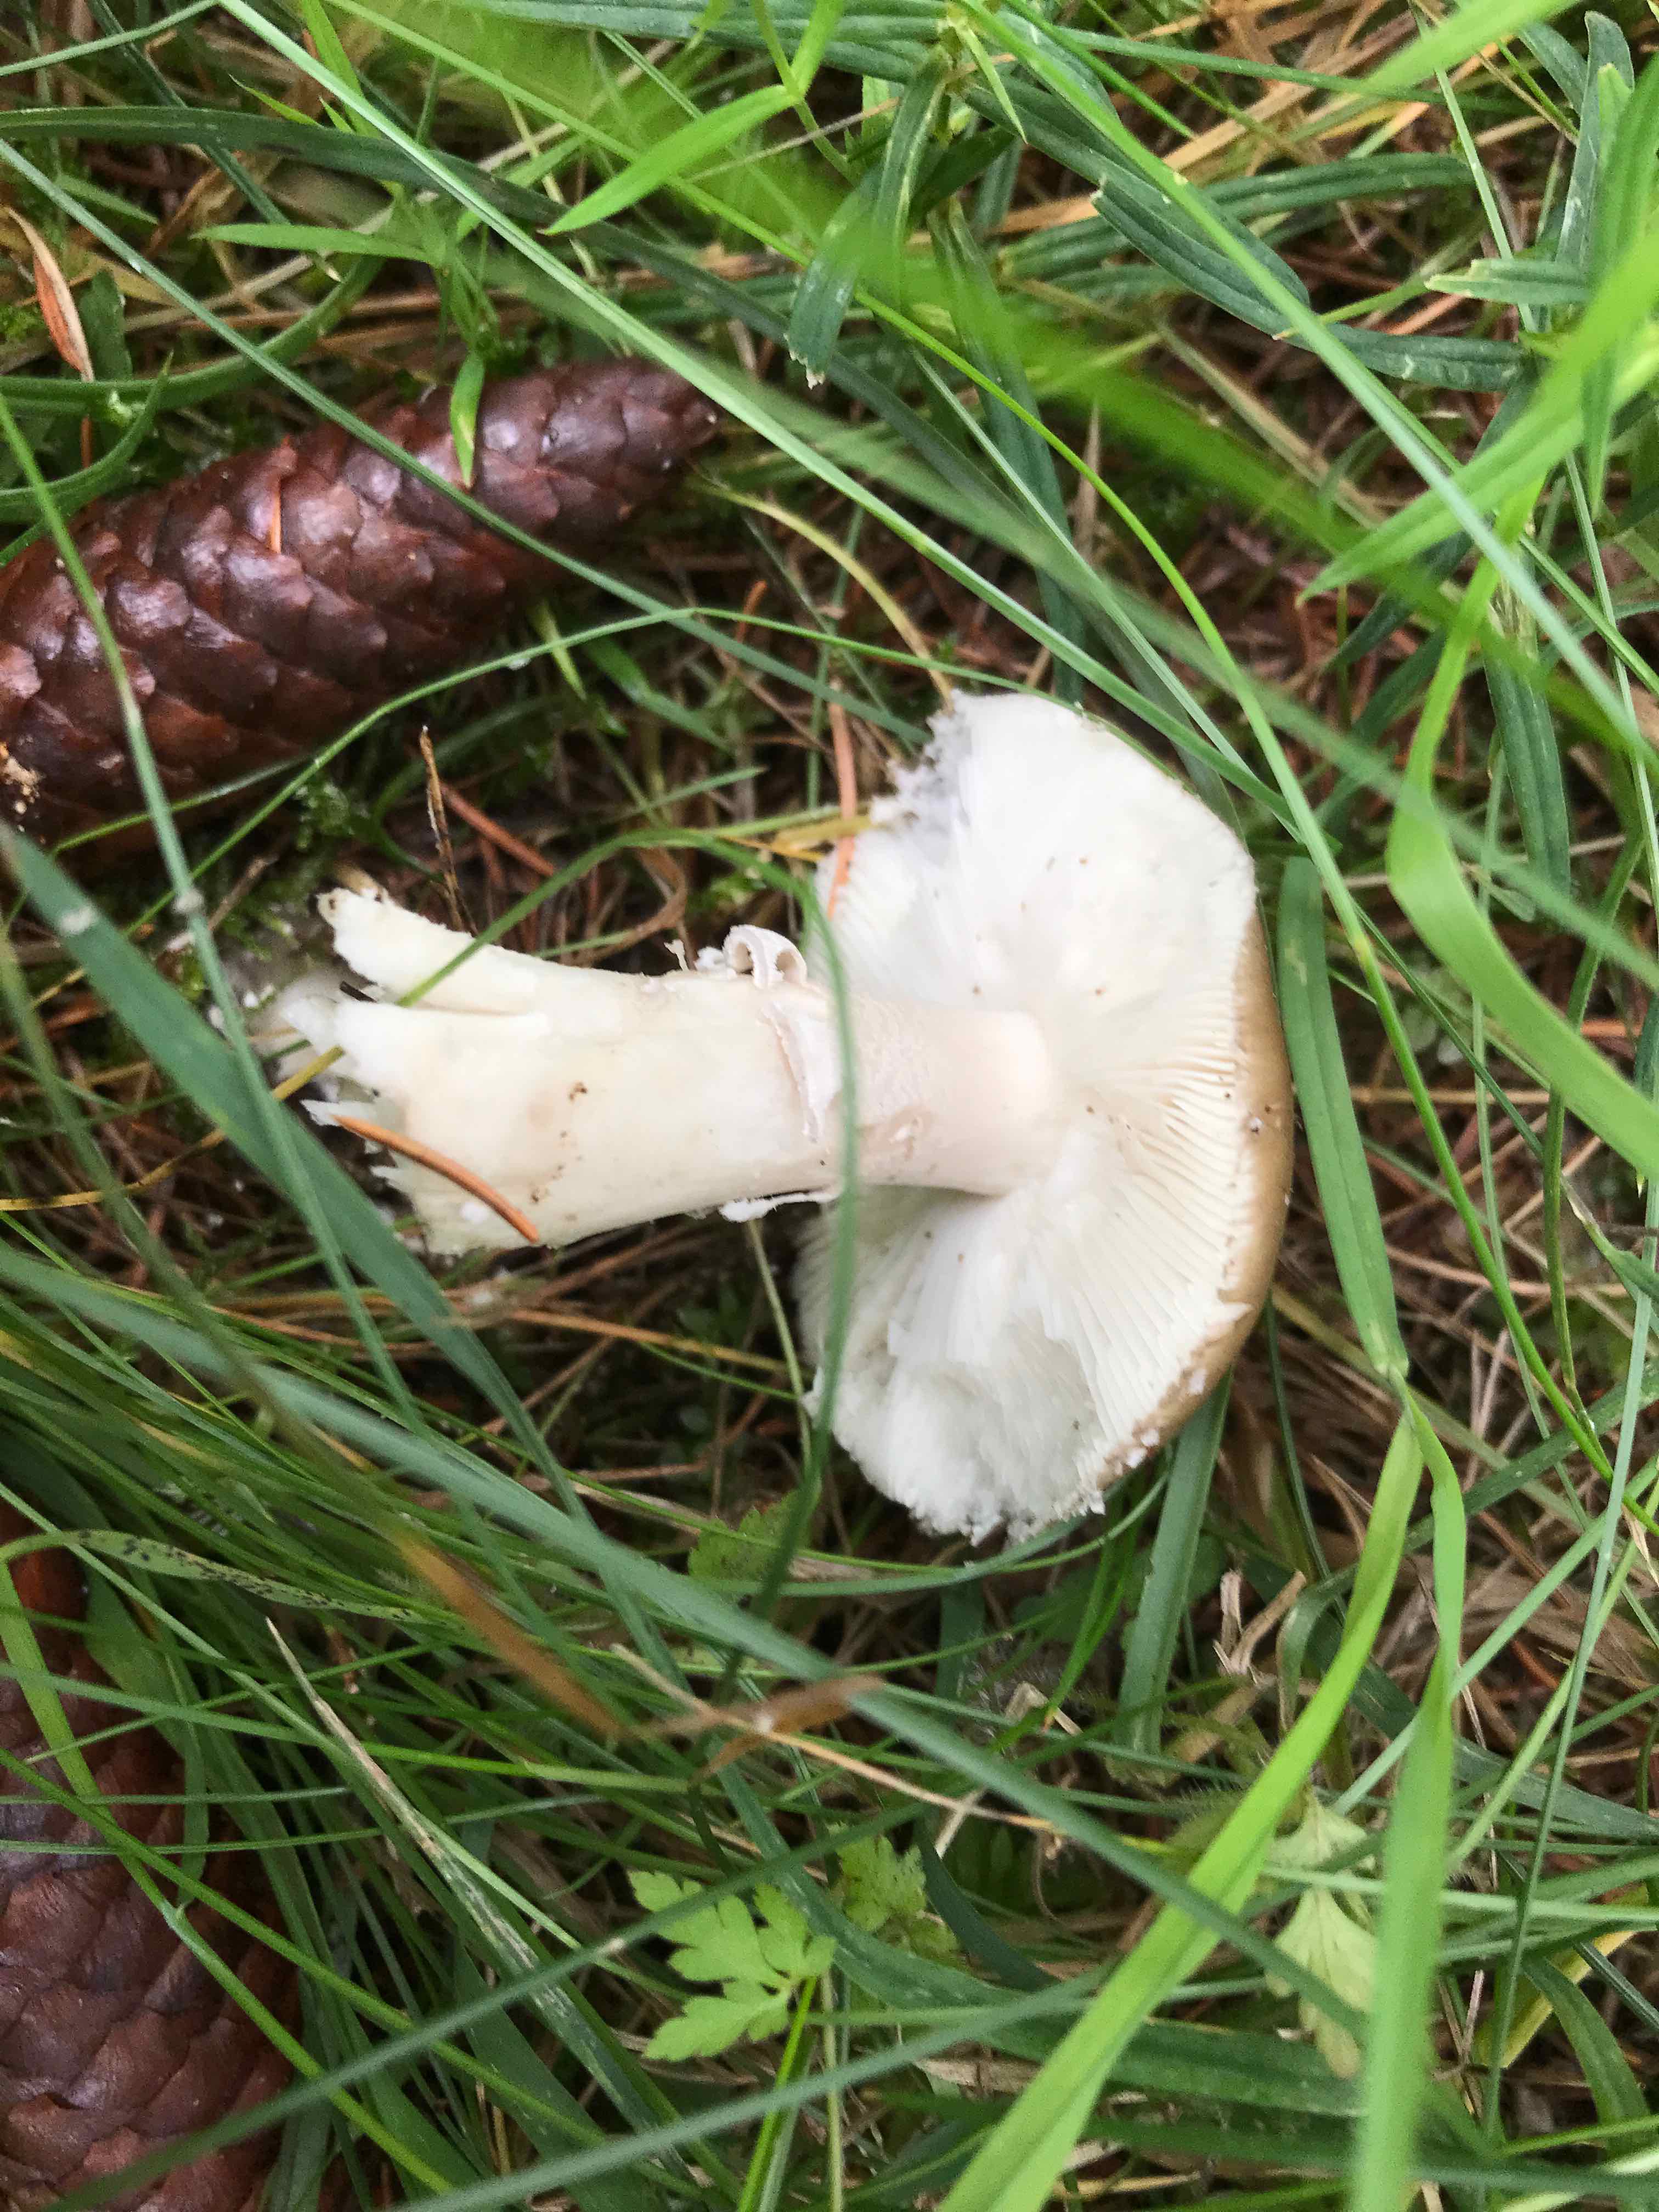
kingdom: Fungi
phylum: Basidiomycota
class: Agaricomycetes
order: Agaricales
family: Amanitaceae
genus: Amanita
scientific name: Amanita porphyria
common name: porfyr-fluesvamp
